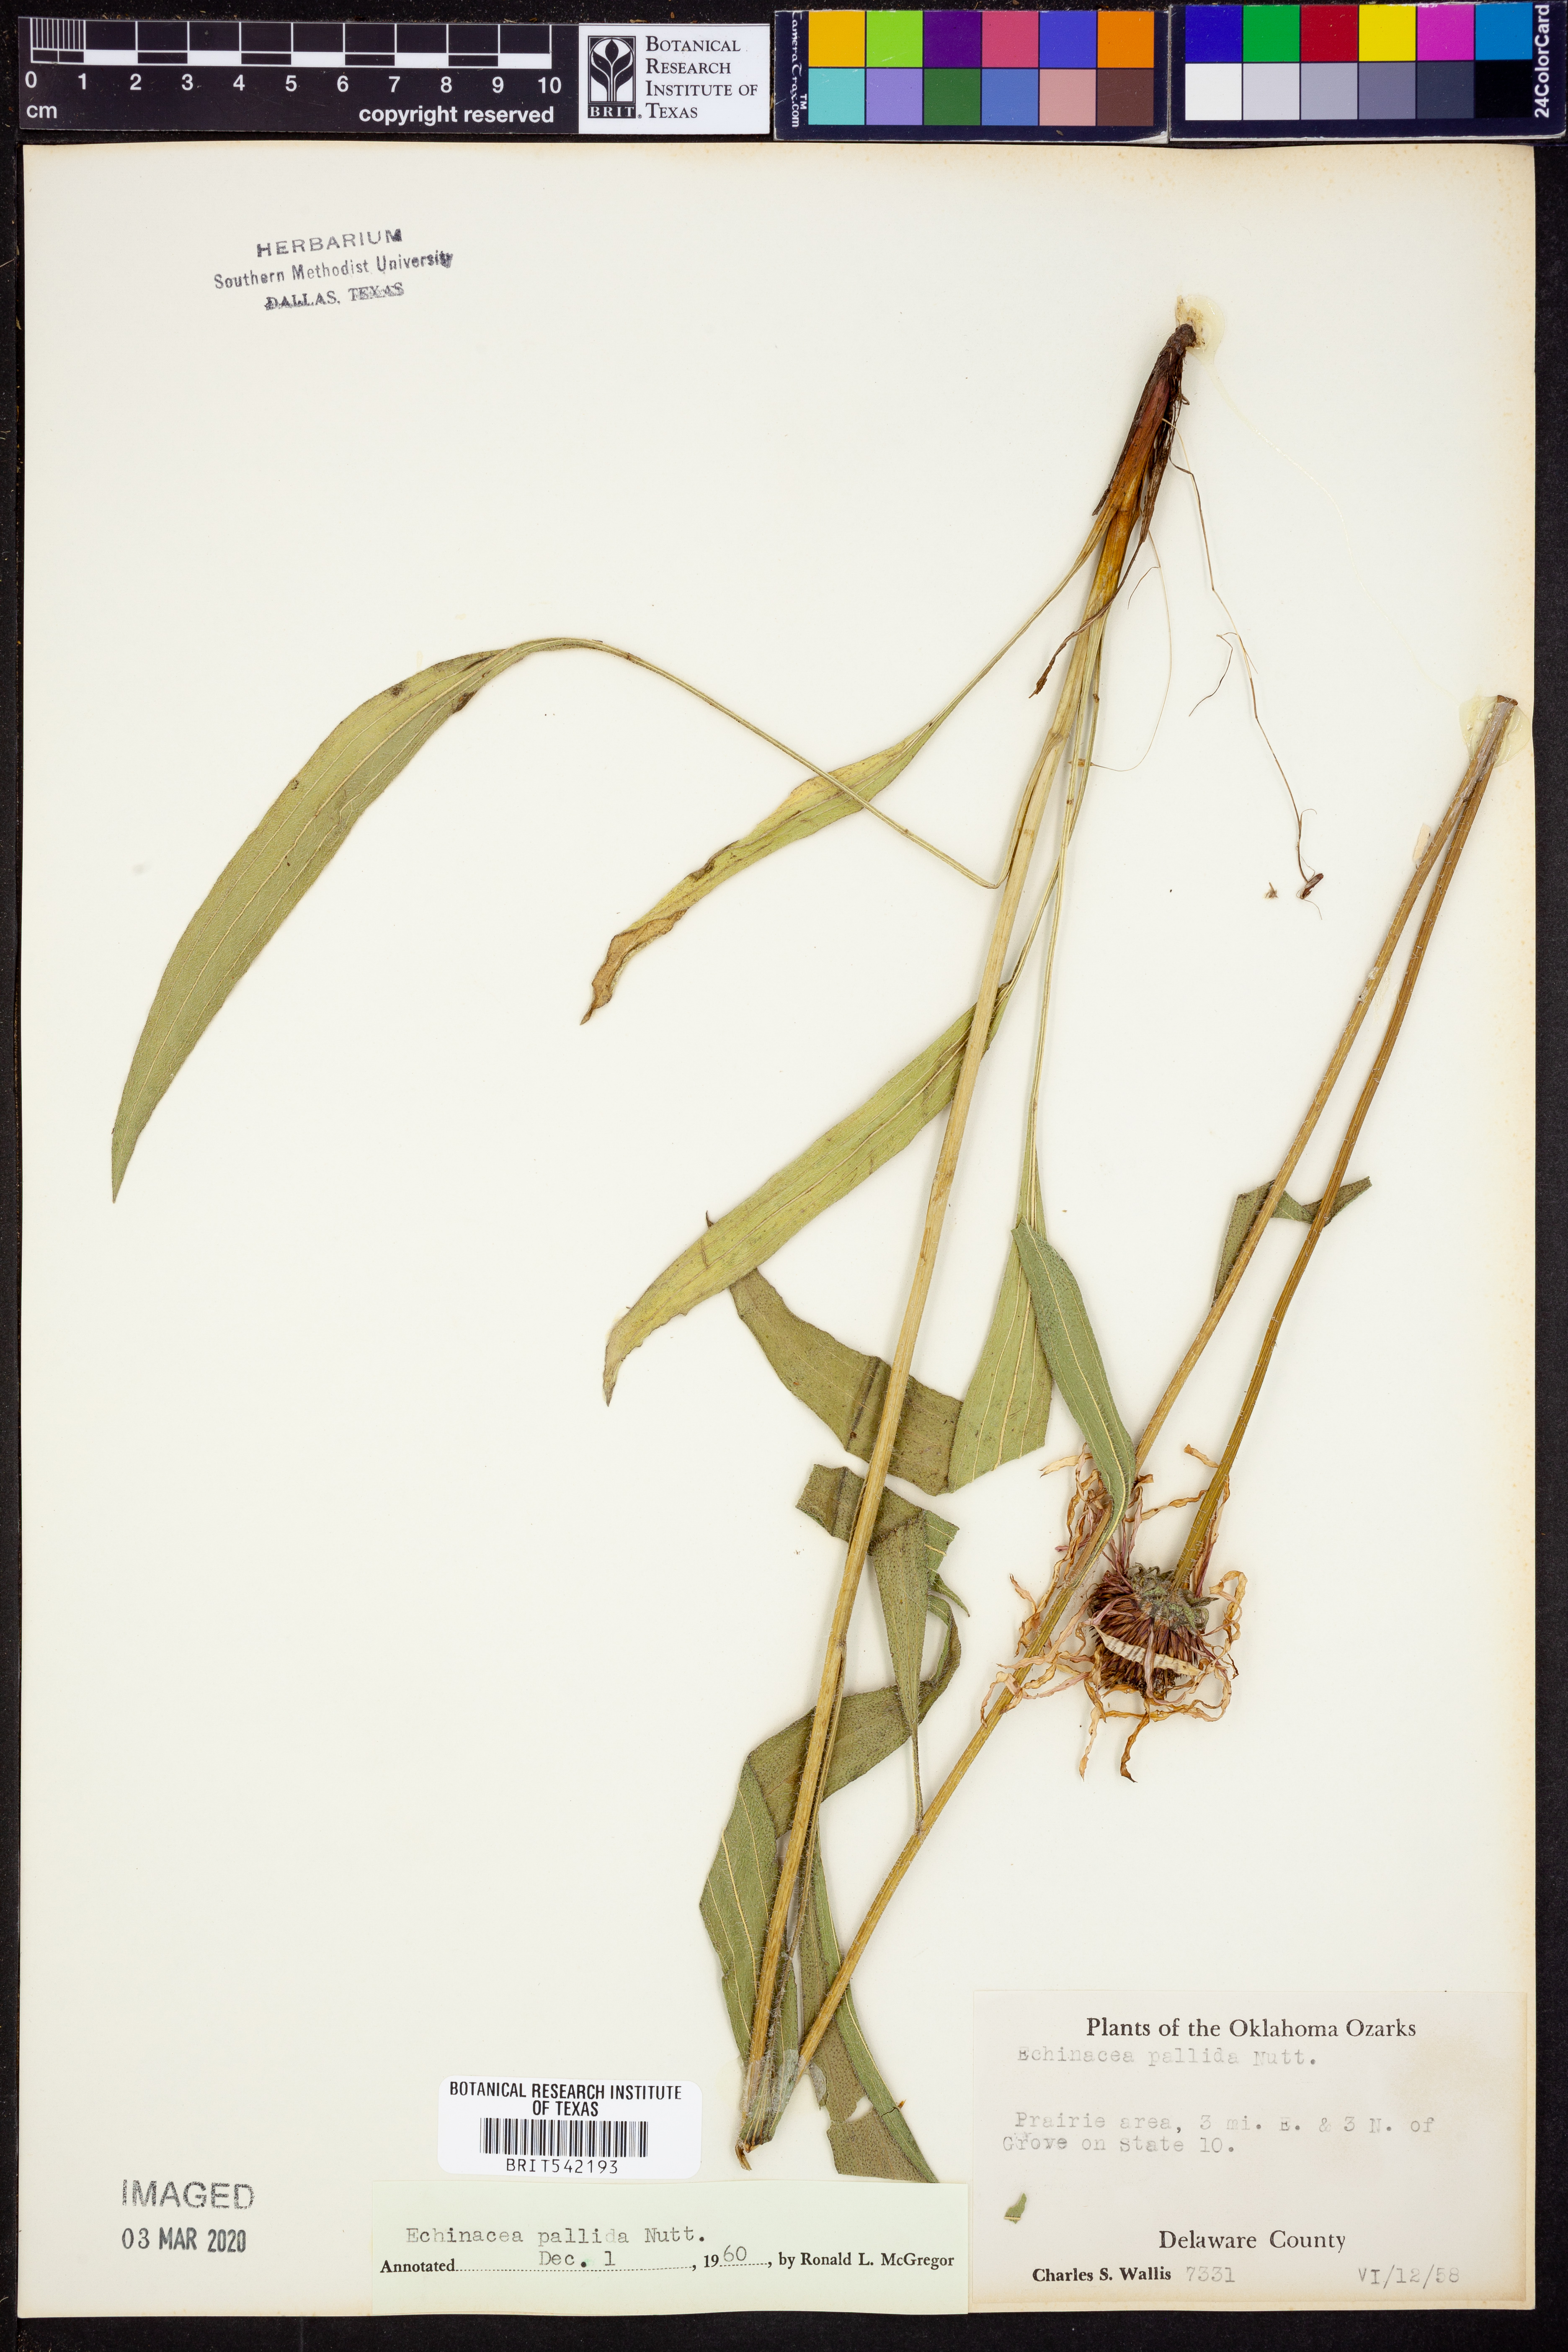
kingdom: Plantae
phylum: Tracheophyta
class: Magnoliopsida
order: Asterales
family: Asteraceae
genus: Echinacea
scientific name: Echinacea pallida
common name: Pale echinacea
